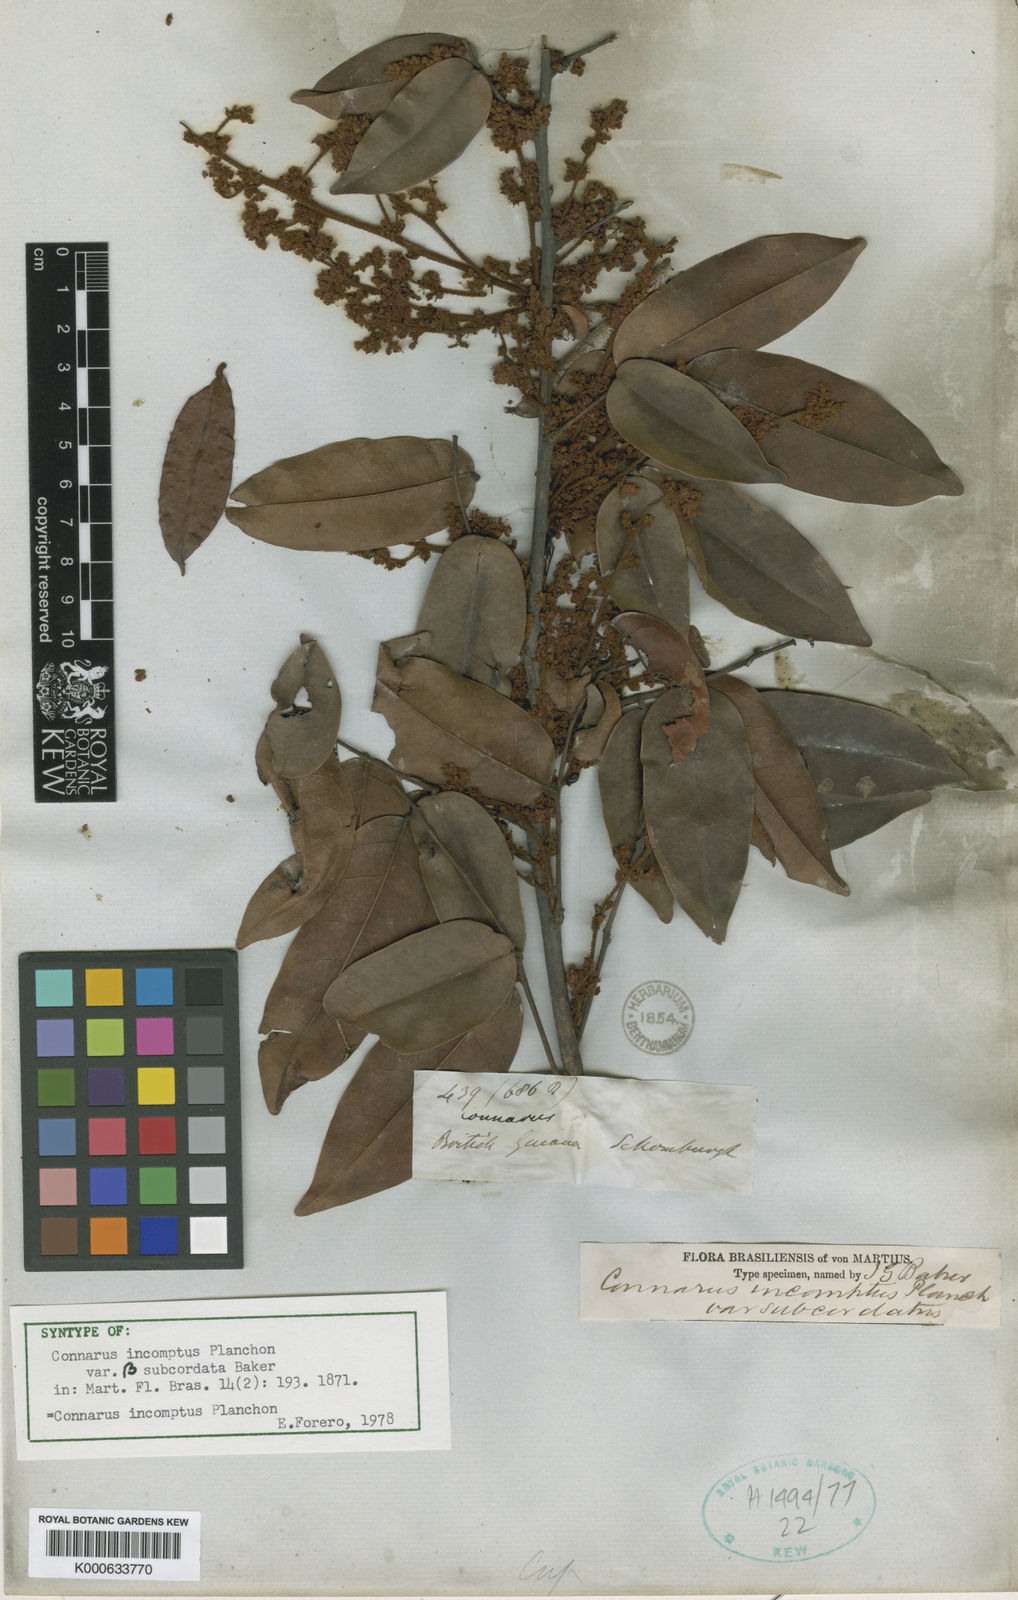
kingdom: Plantae
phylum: Tracheophyta
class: Magnoliopsida
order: Oxalidales
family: Connaraceae
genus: Connarus
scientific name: Connarus incomptus
